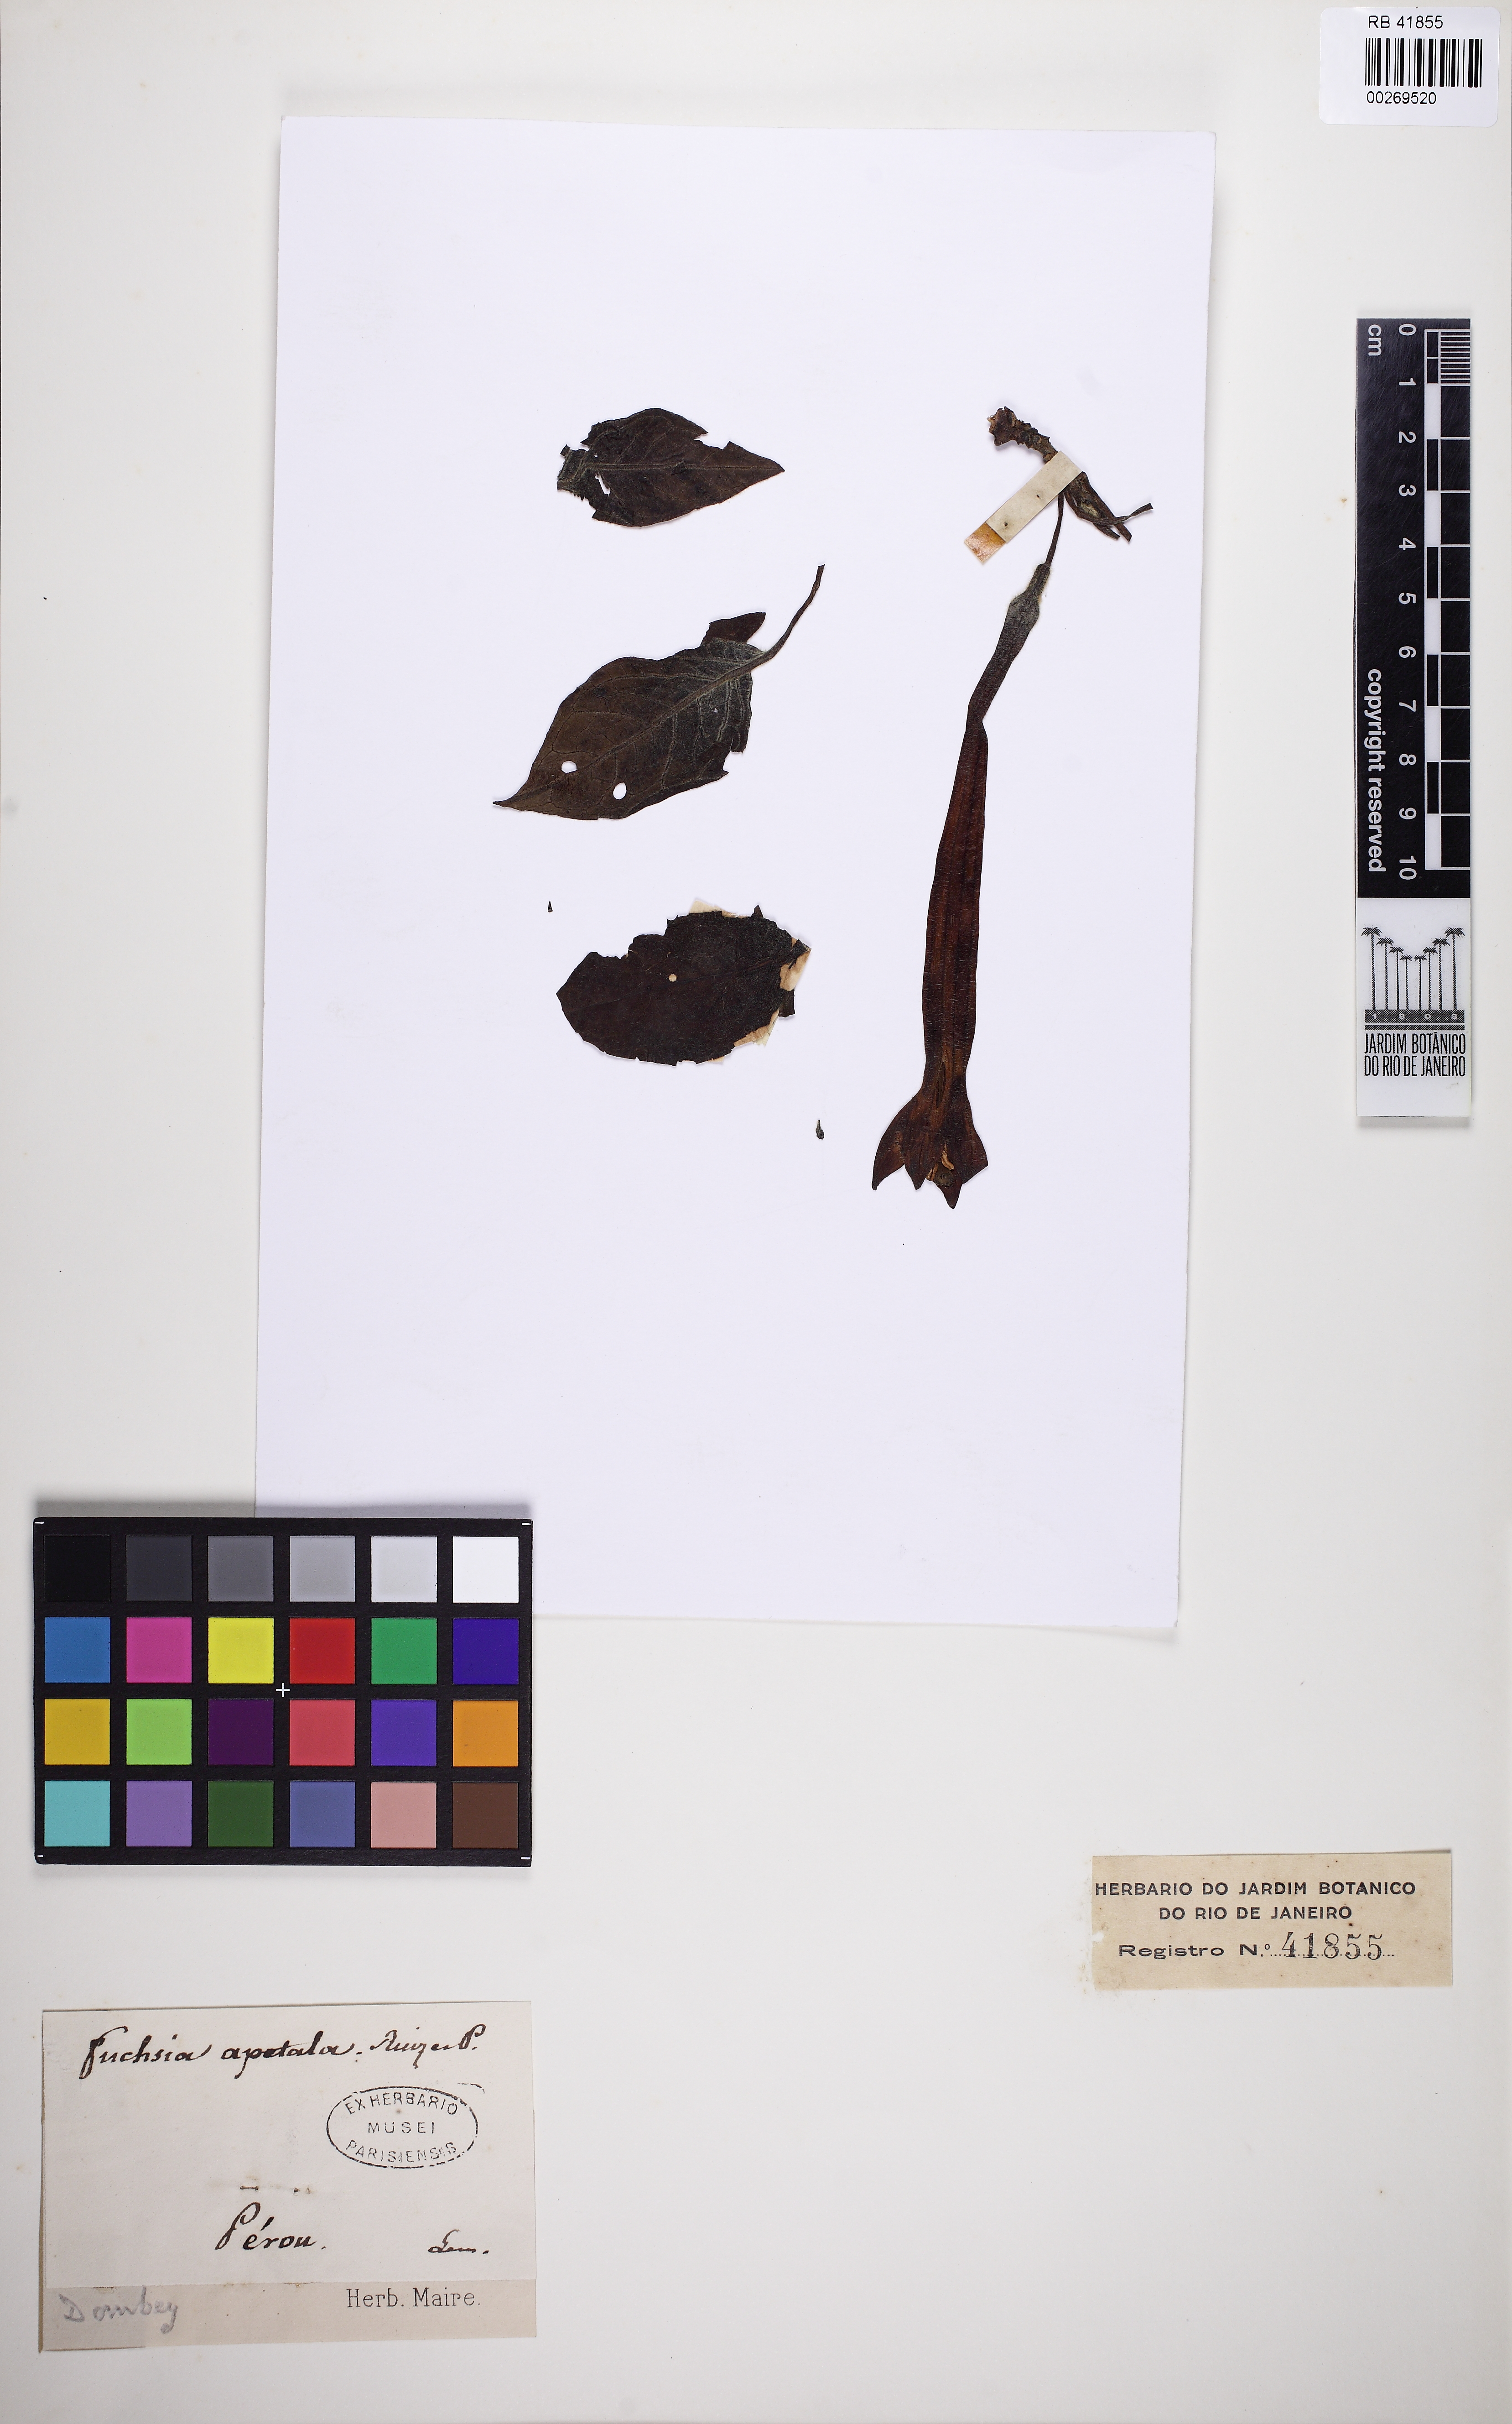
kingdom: Plantae
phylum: Tracheophyta
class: Magnoliopsida
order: Myrtales
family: Onagraceae
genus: Fuchsia
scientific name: Fuchsia apetala
